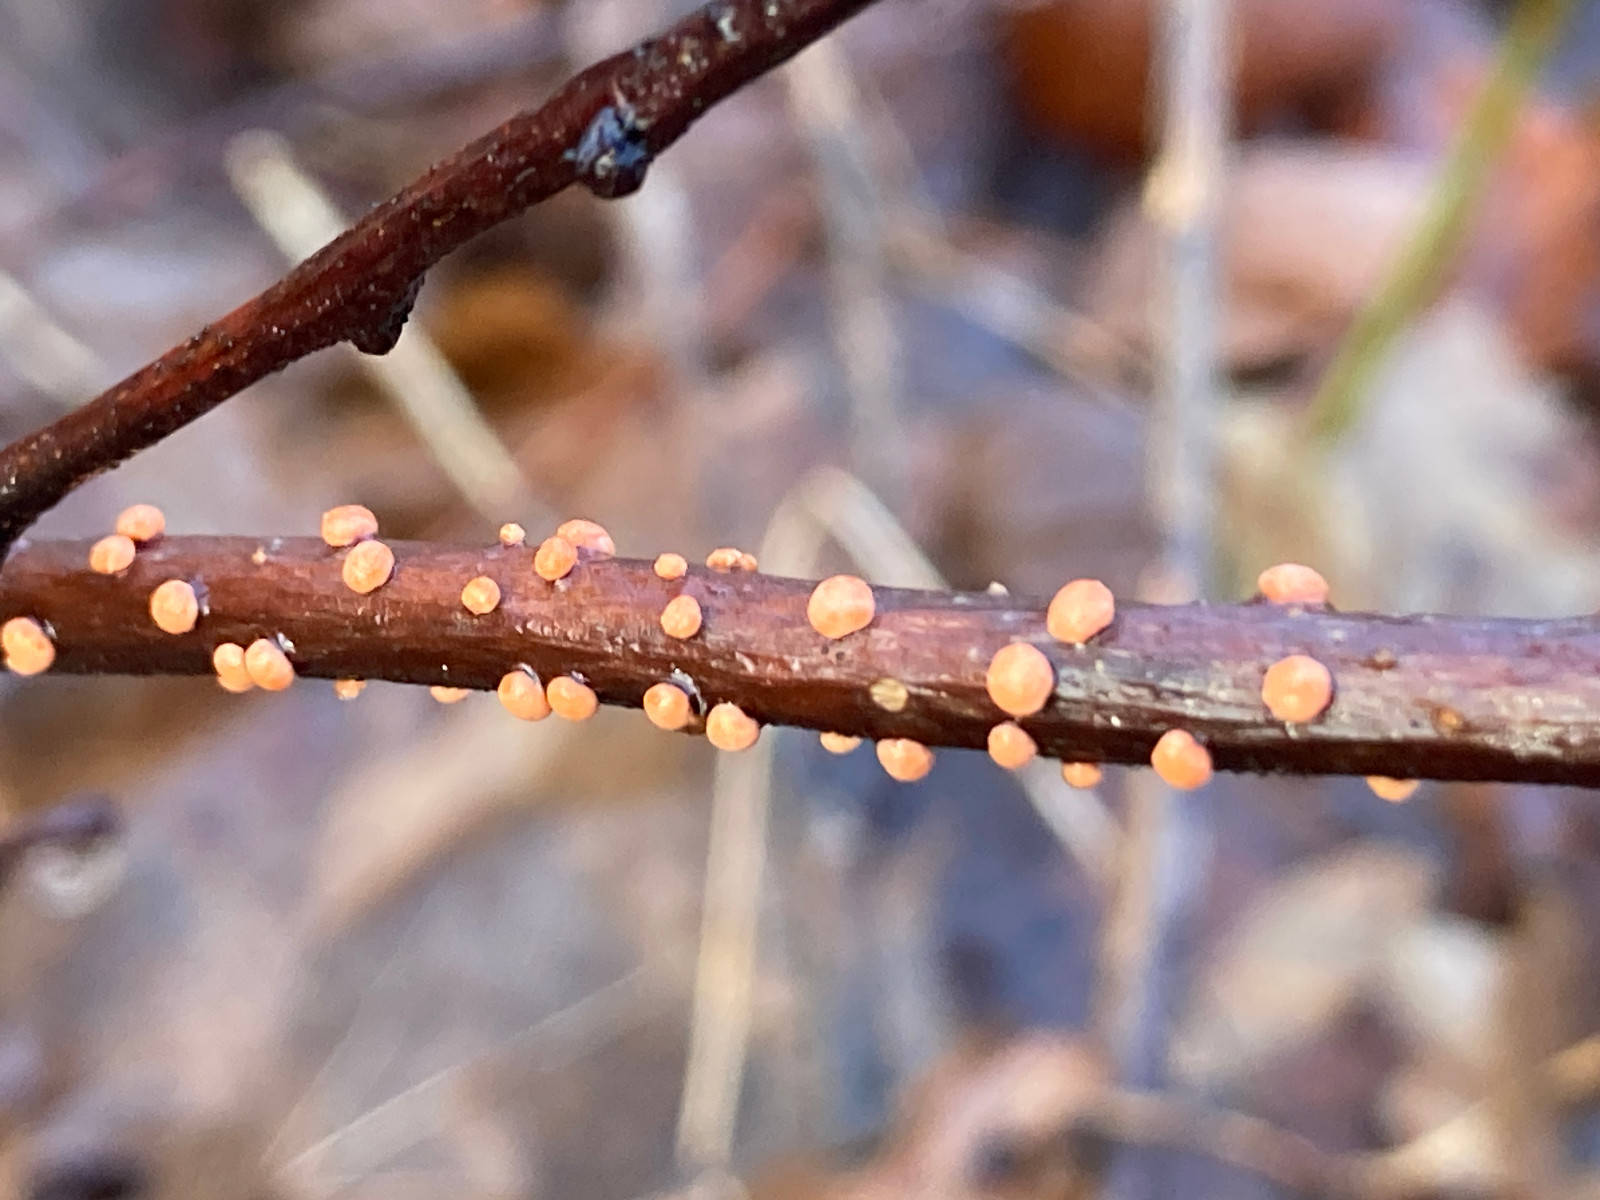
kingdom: Fungi
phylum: Ascomycota
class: Sordariomycetes
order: Hypocreales
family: Nectriaceae
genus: Nectria
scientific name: Nectria cinnabarina
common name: almindelig cinnobersvamp
